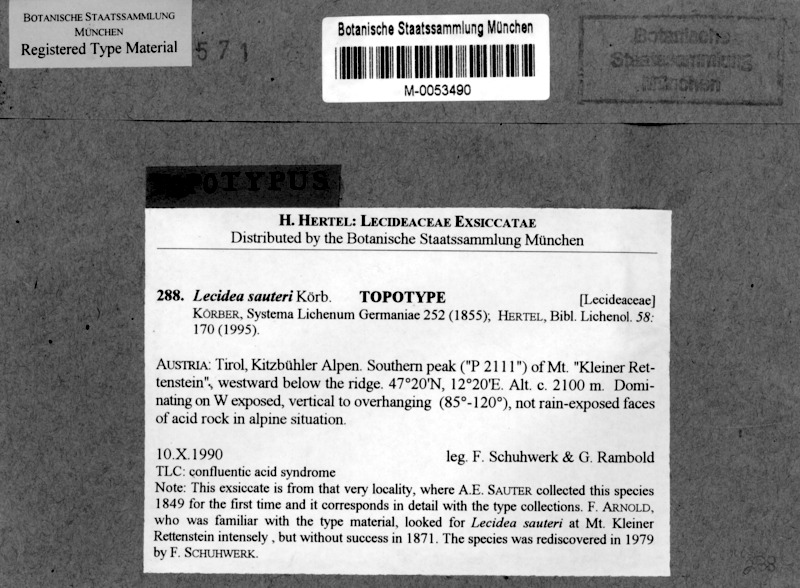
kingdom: Fungi
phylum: Ascomycota
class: Lecanoromycetes
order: Lecideales
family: Lecideaceae
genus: Lecidea
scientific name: Lecidea sauteri
